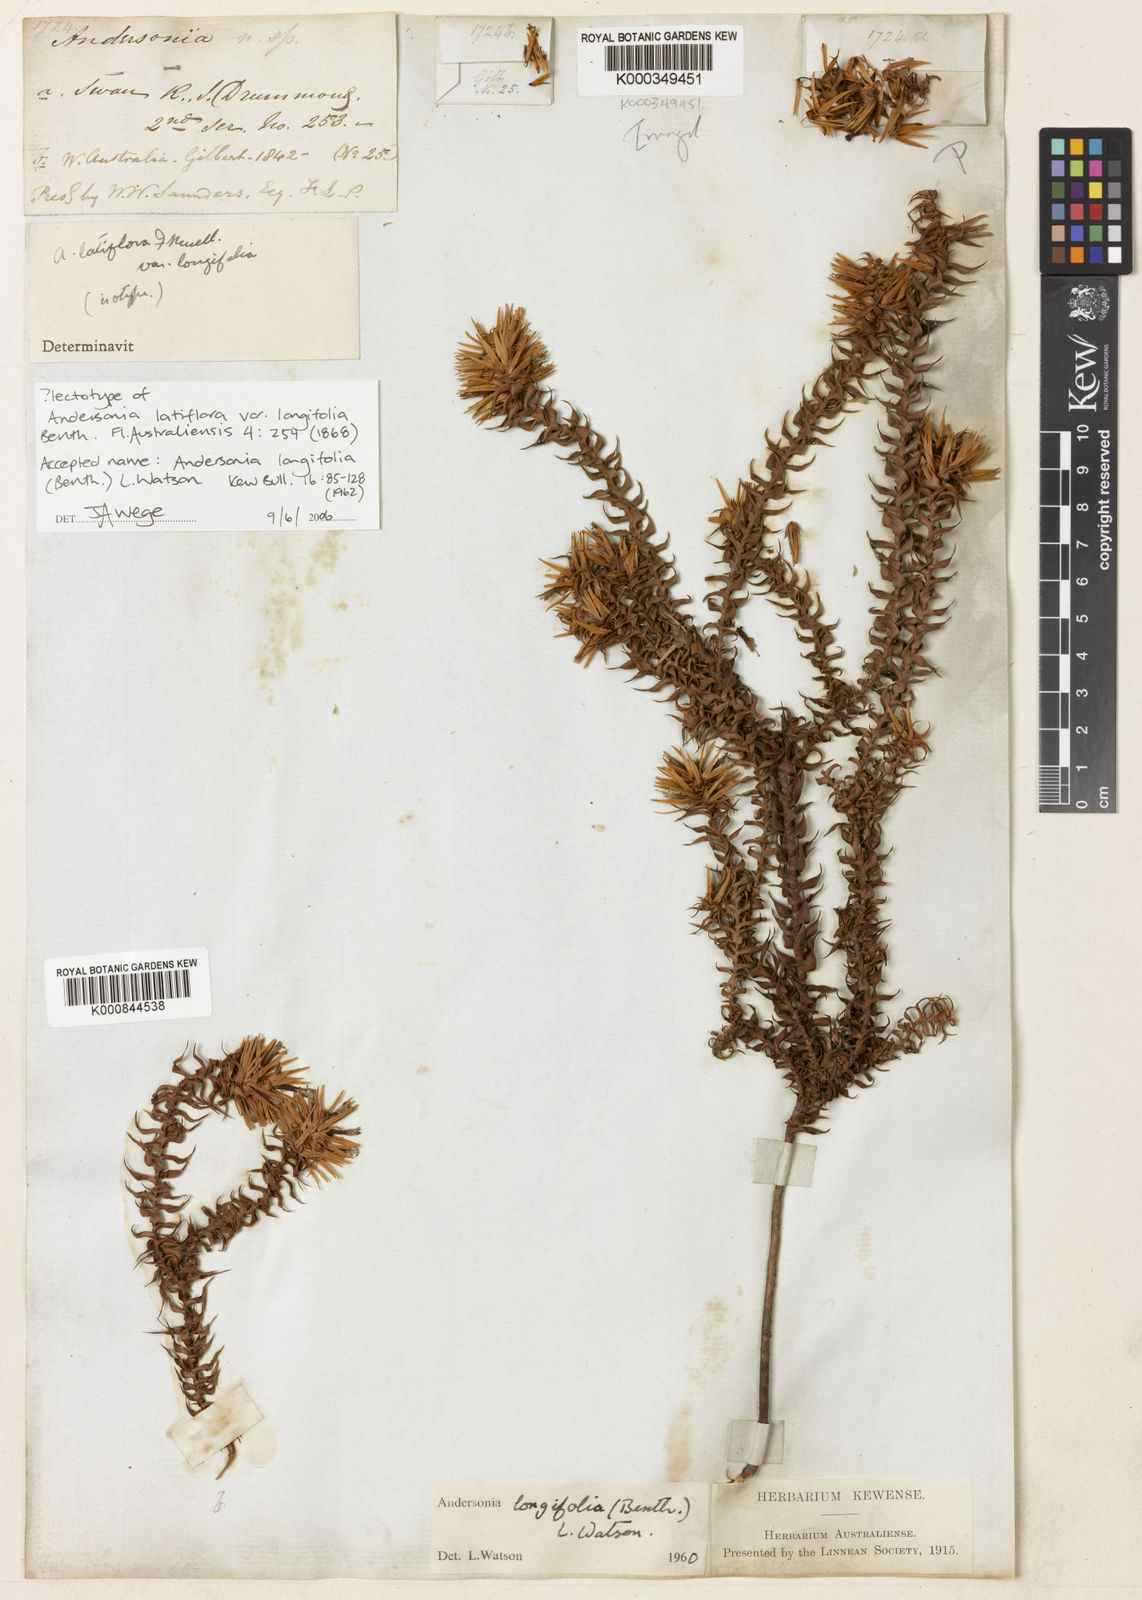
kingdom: Plantae
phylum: Tracheophyta
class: Magnoliopsida
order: Ericales
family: Ericaceae
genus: Andersonia
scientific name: Andersonia longifolia
